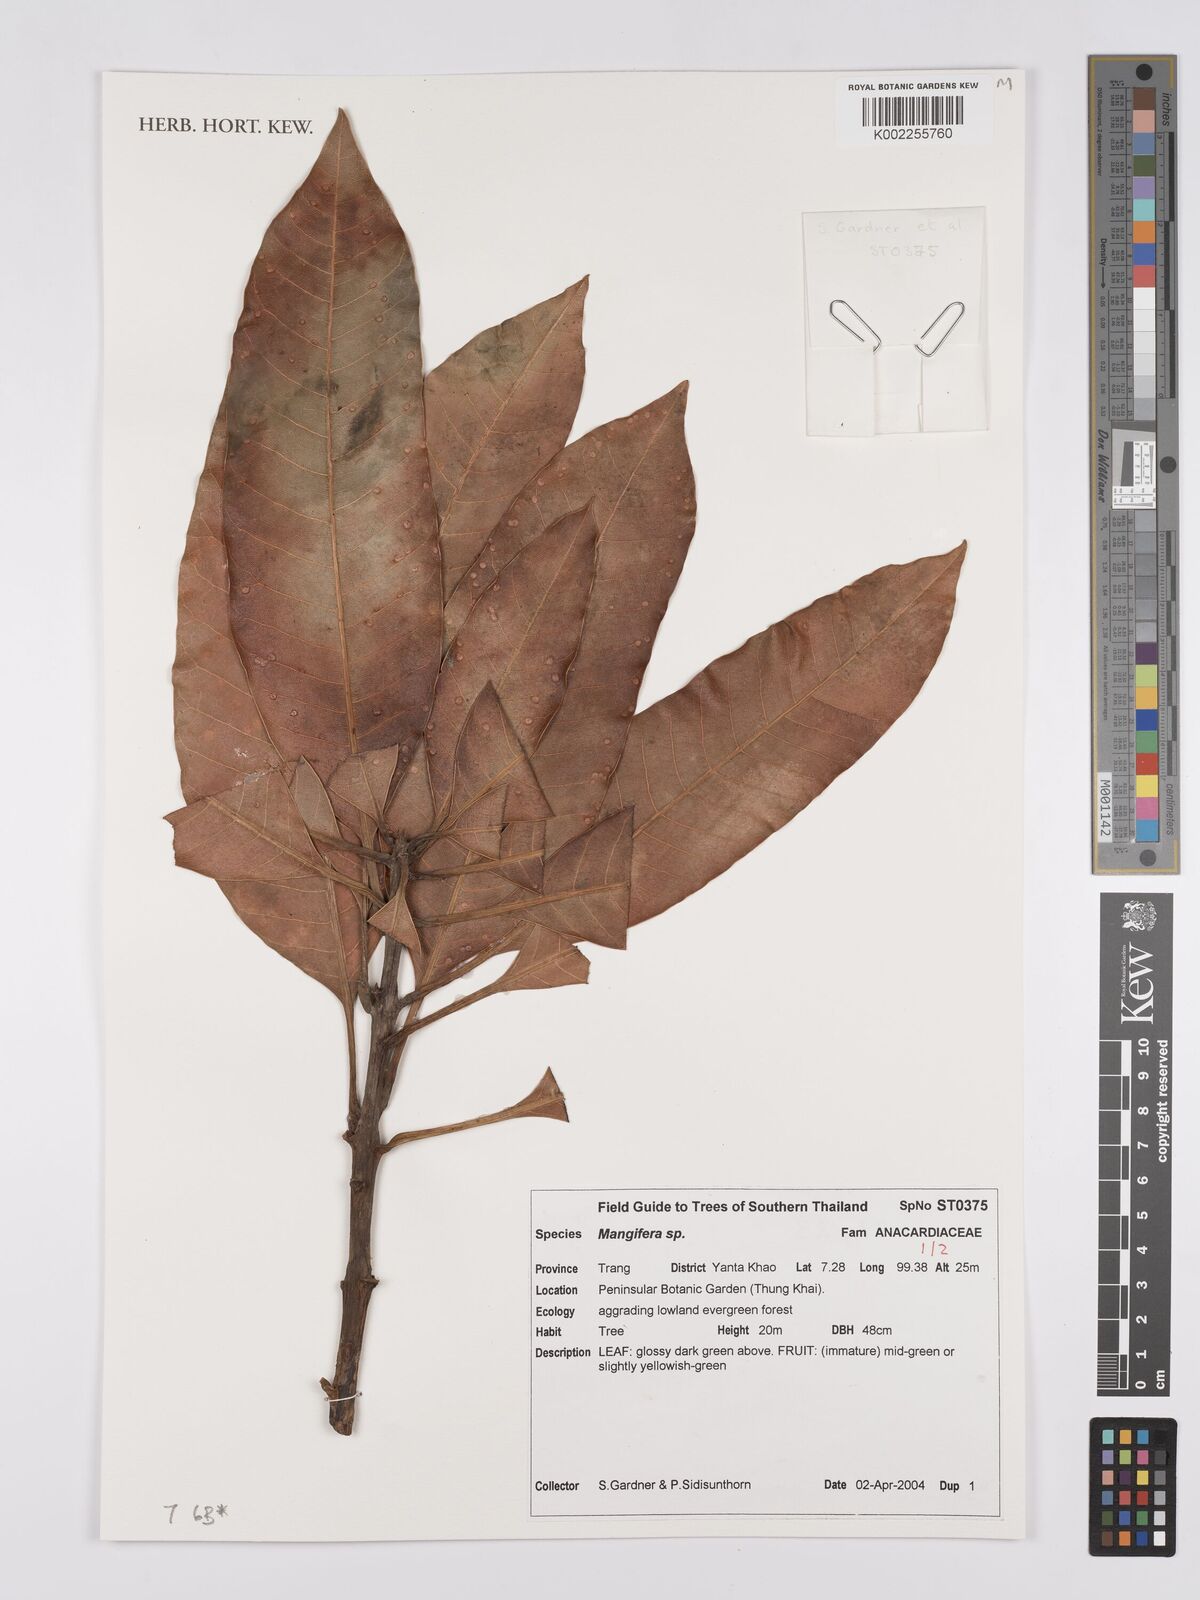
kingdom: Plantae
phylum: Tracheophyta
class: Magnoliopsida
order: Sapindales
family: Anacardiaceae
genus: Mangifera
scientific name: Mangifera
